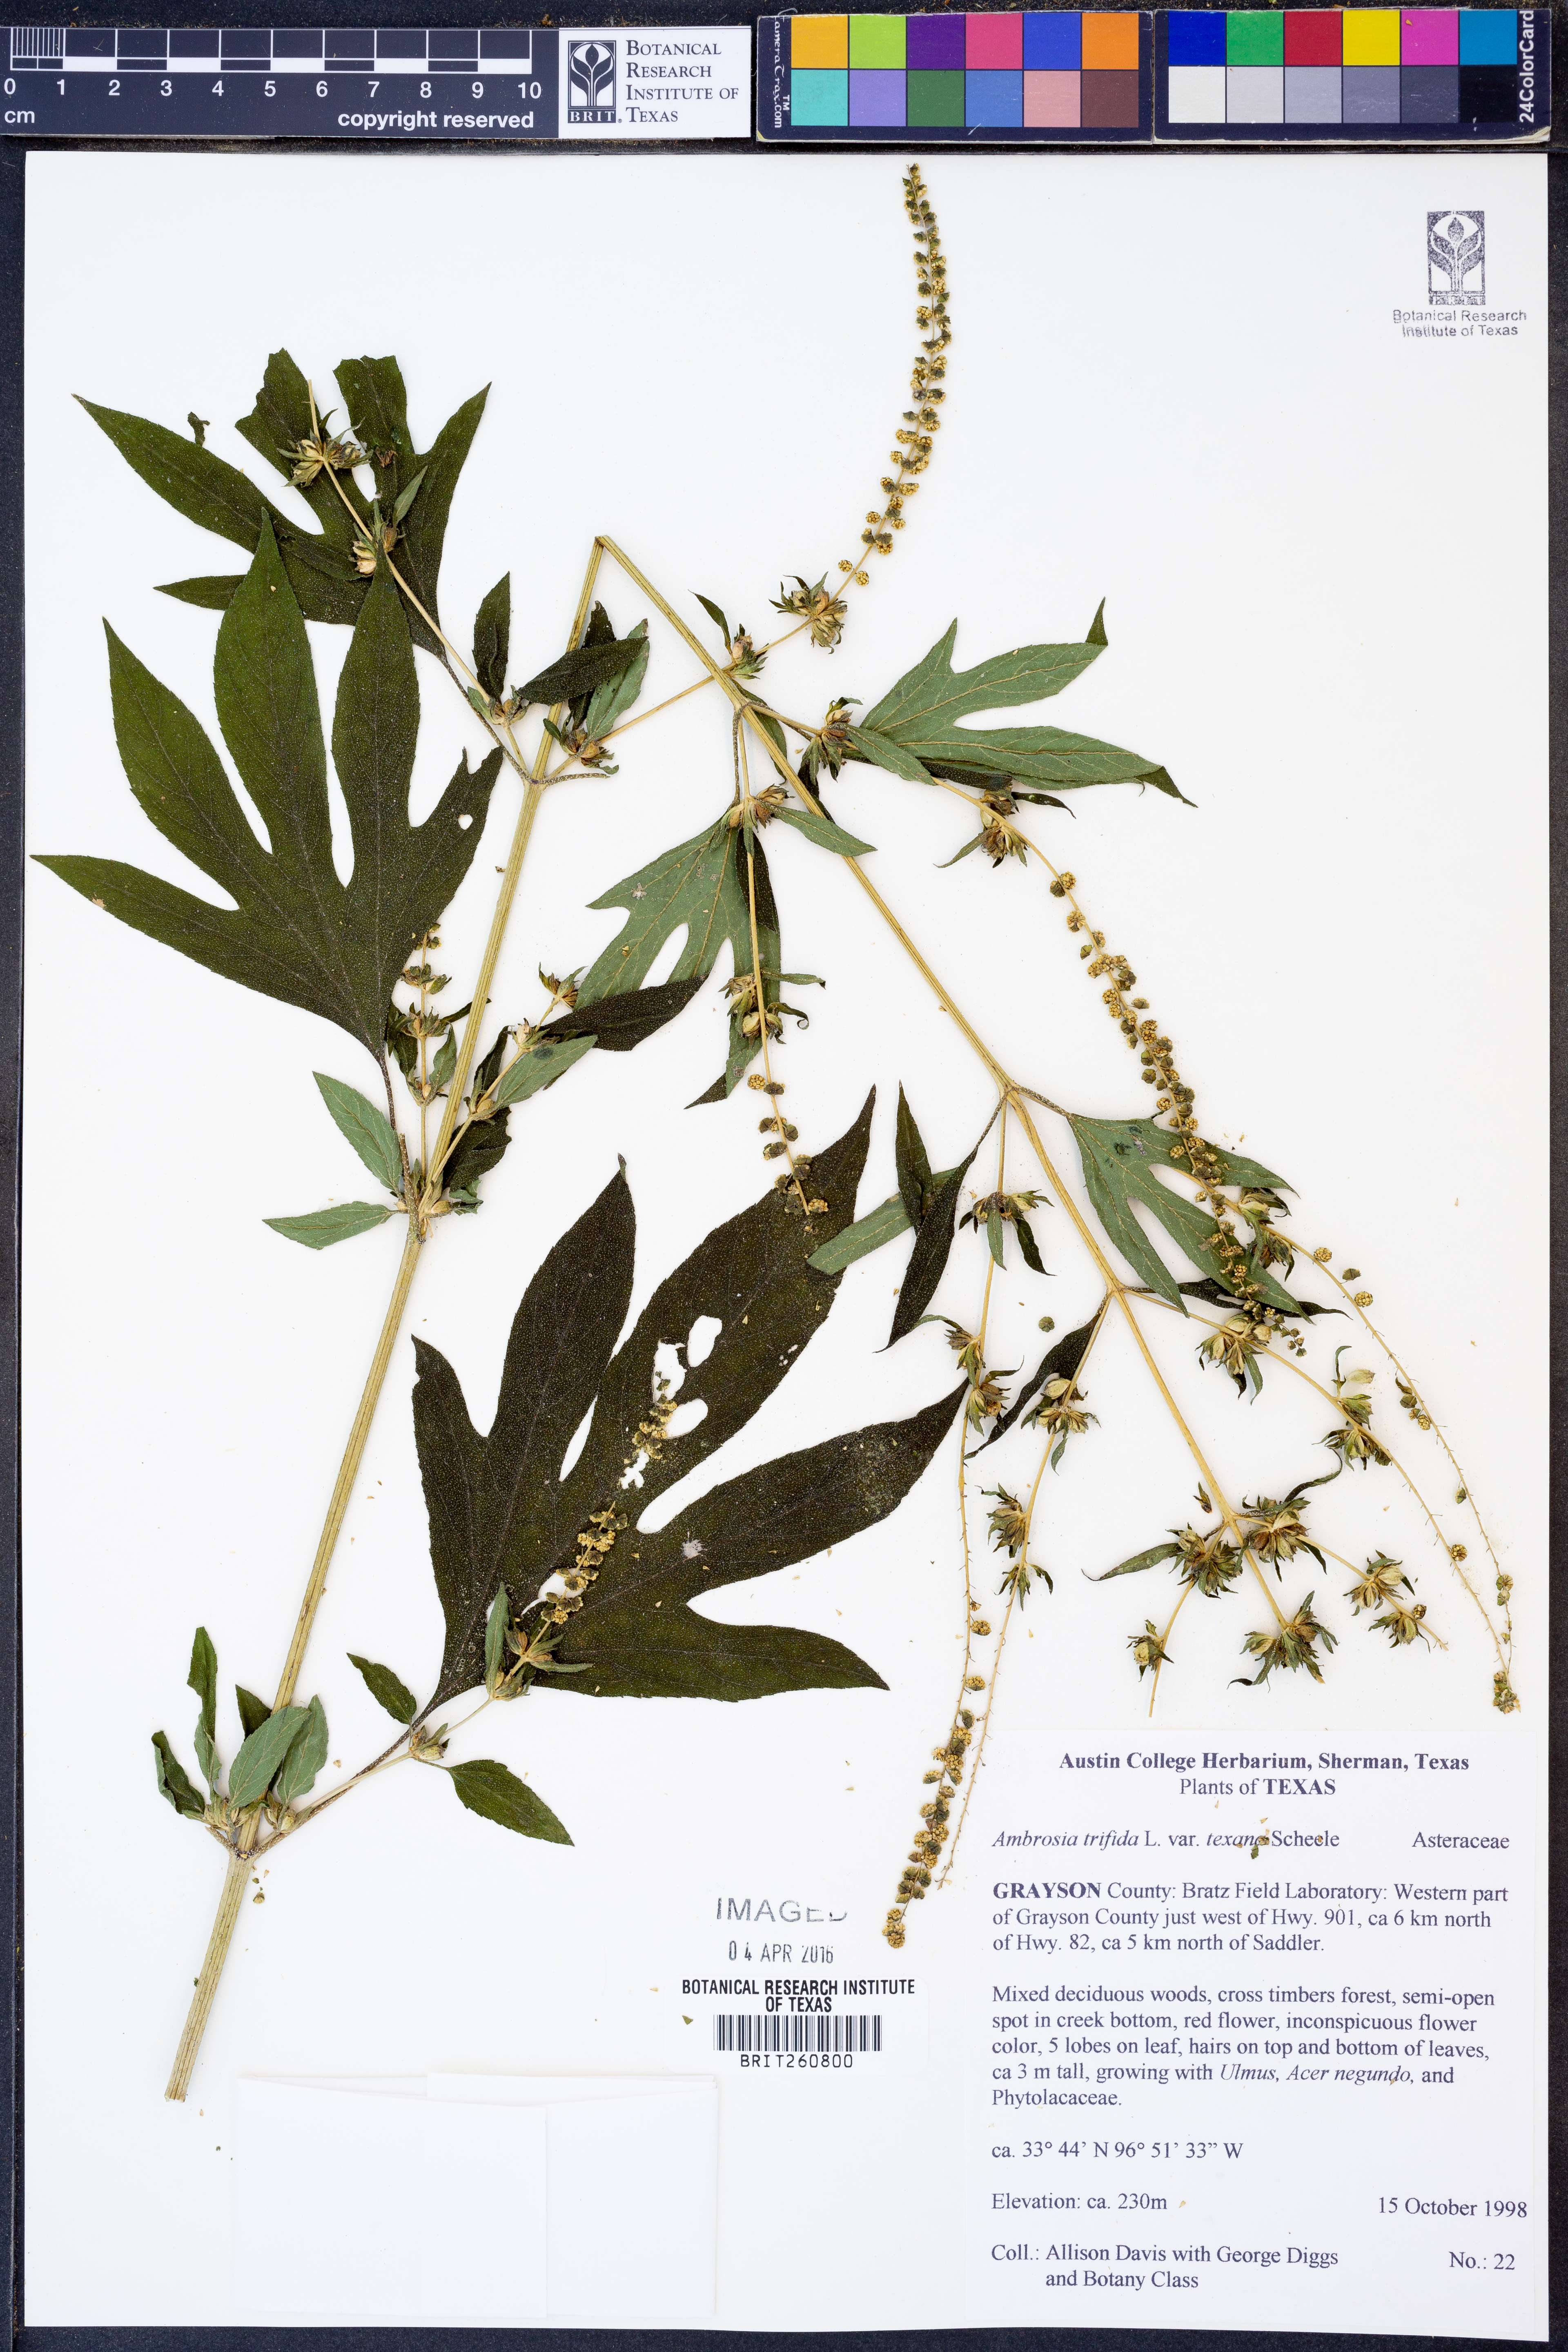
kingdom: Plantae
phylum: Tracheophyta
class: Magnoliopsida
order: Asterales
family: Asteraceae
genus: Ambrosia
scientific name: Ambrosia trifida
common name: Giant ragweed
